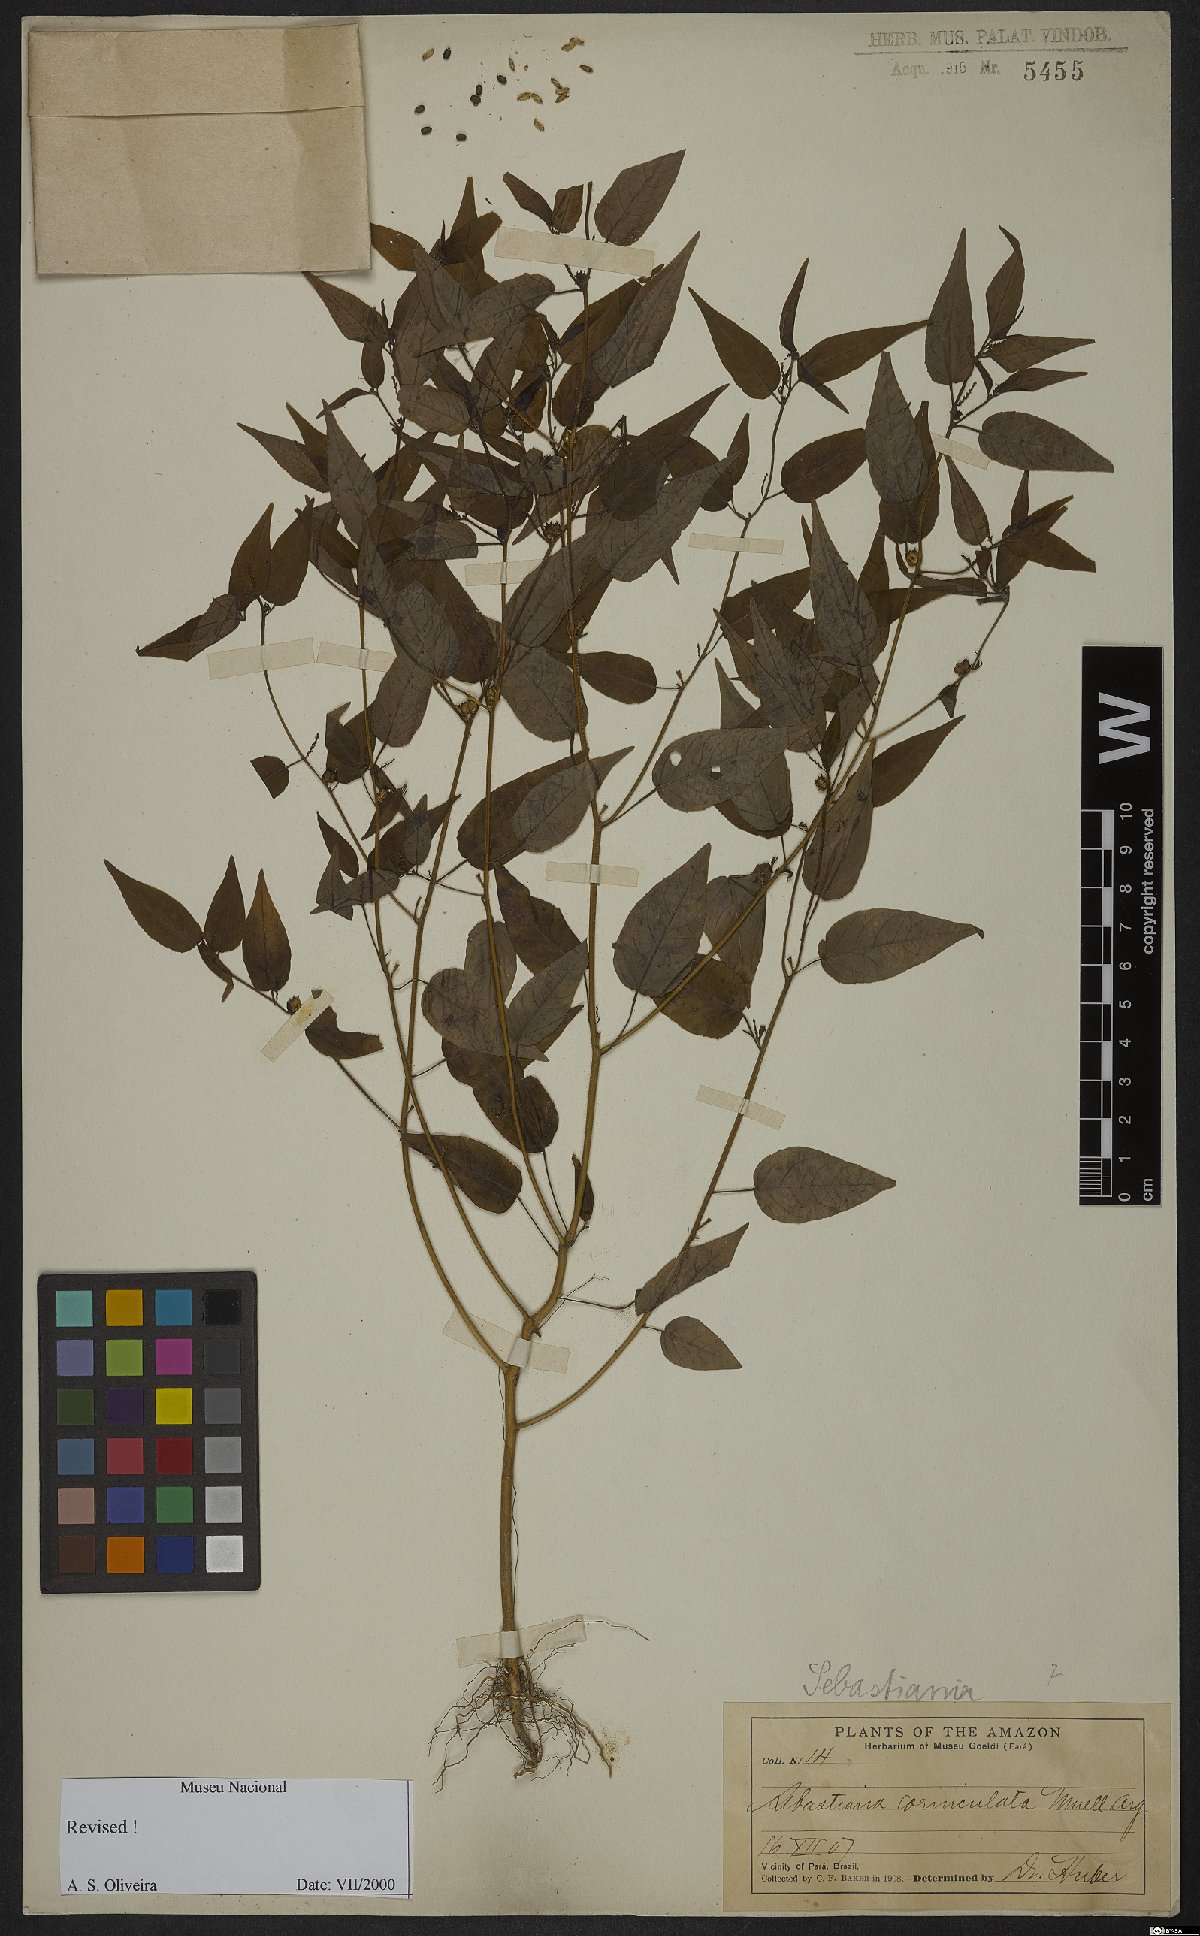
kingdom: Plantae
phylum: Tracheophyta
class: Magnoliopsida
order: Malpighiales
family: Euphorbiaceae
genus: Microstachys
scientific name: Microstachys corniculata
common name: Hato tejas
